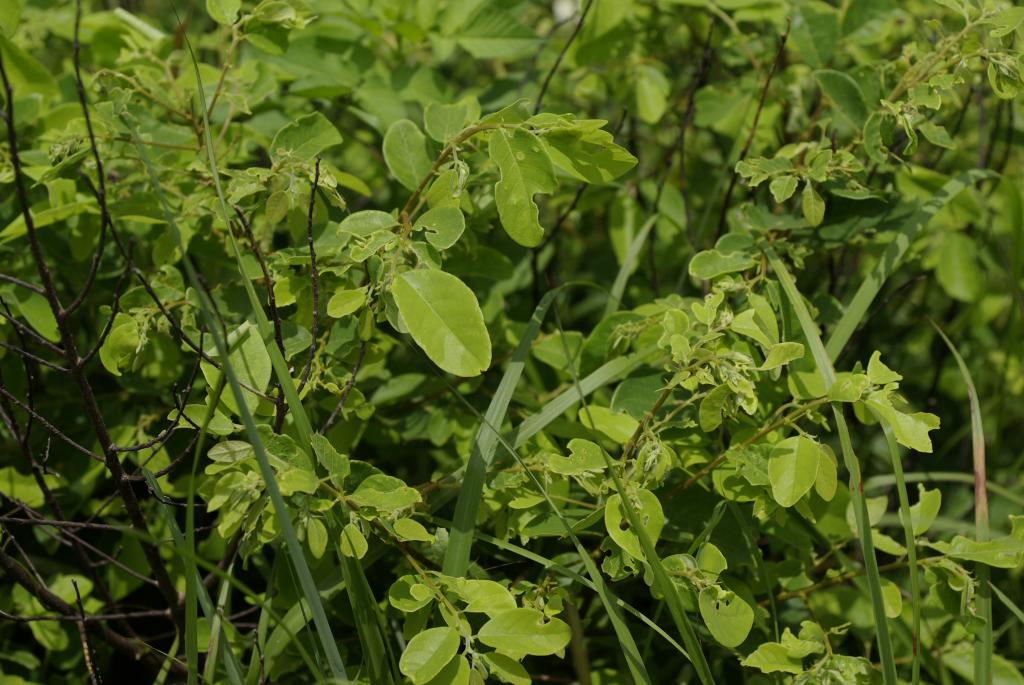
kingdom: Plantae
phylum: Tracheophyta
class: Magnoliopsida
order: Malpighiales
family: Phyllanthaceae
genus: Bridelia
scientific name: Bridelia tomentosa
